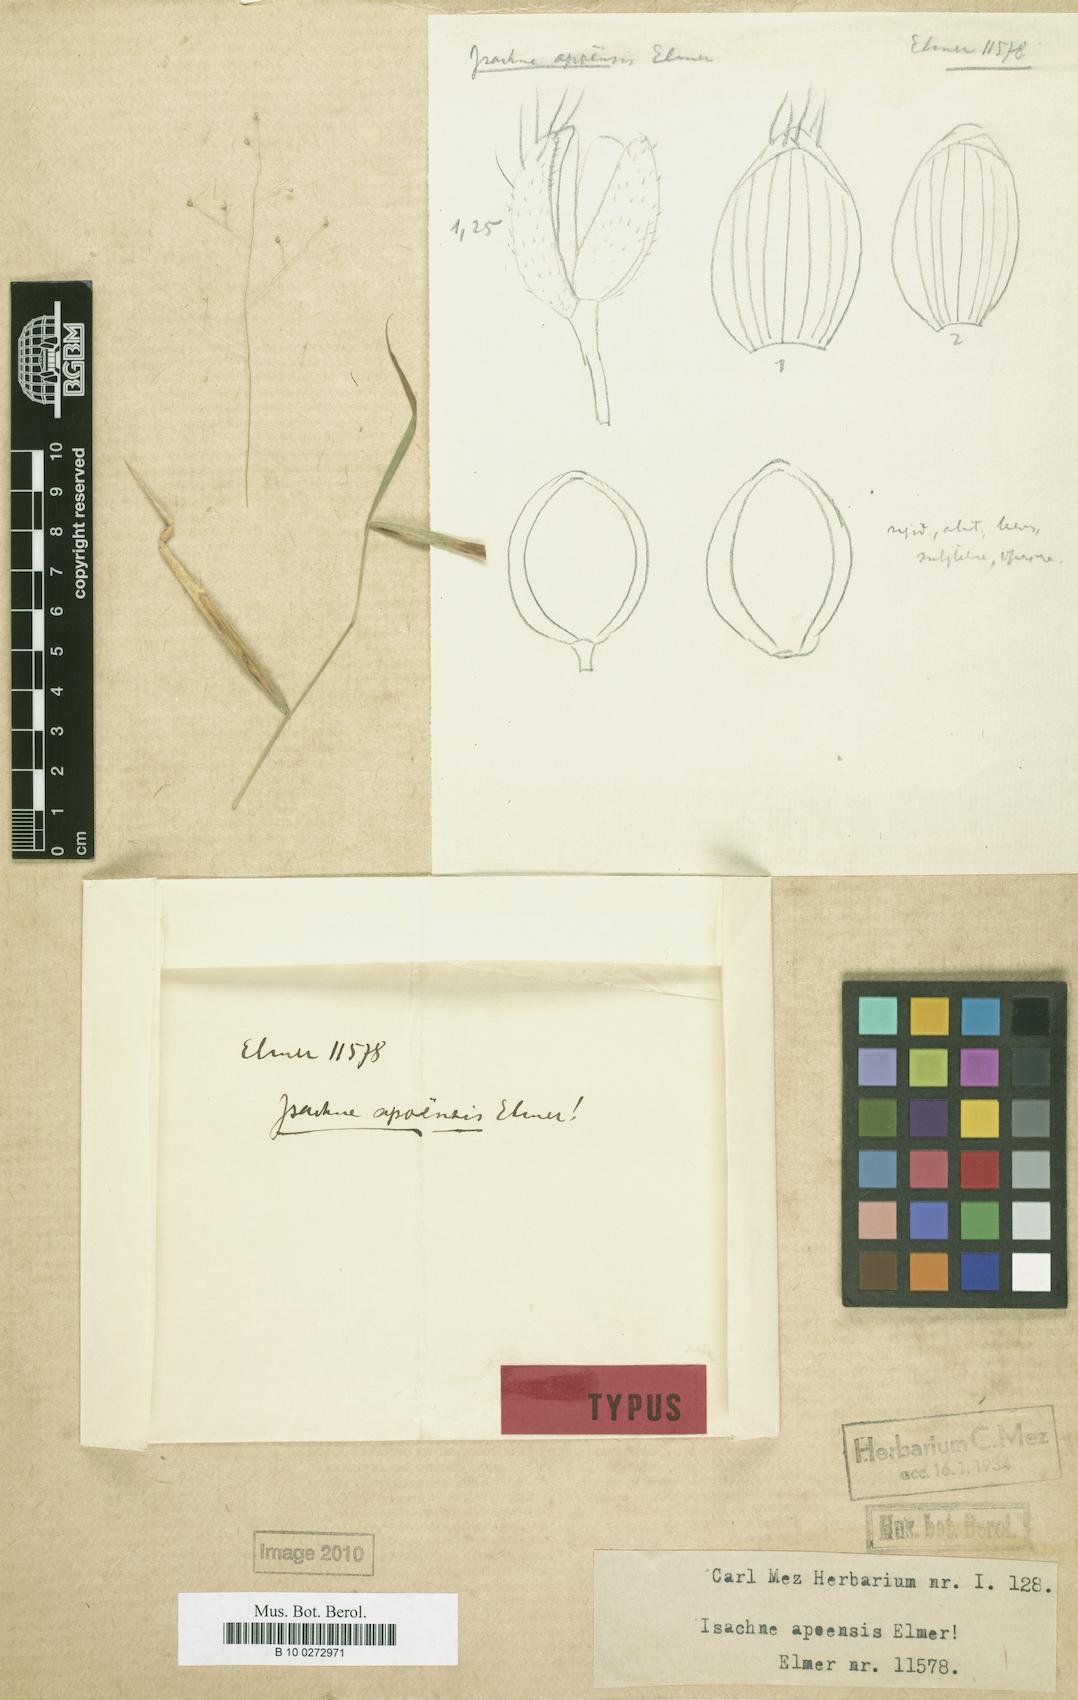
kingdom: Plantae
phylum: Tracheophyta
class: Liliopsida
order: Poales
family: Poaceae
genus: Isachne
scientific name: Isachne albens
